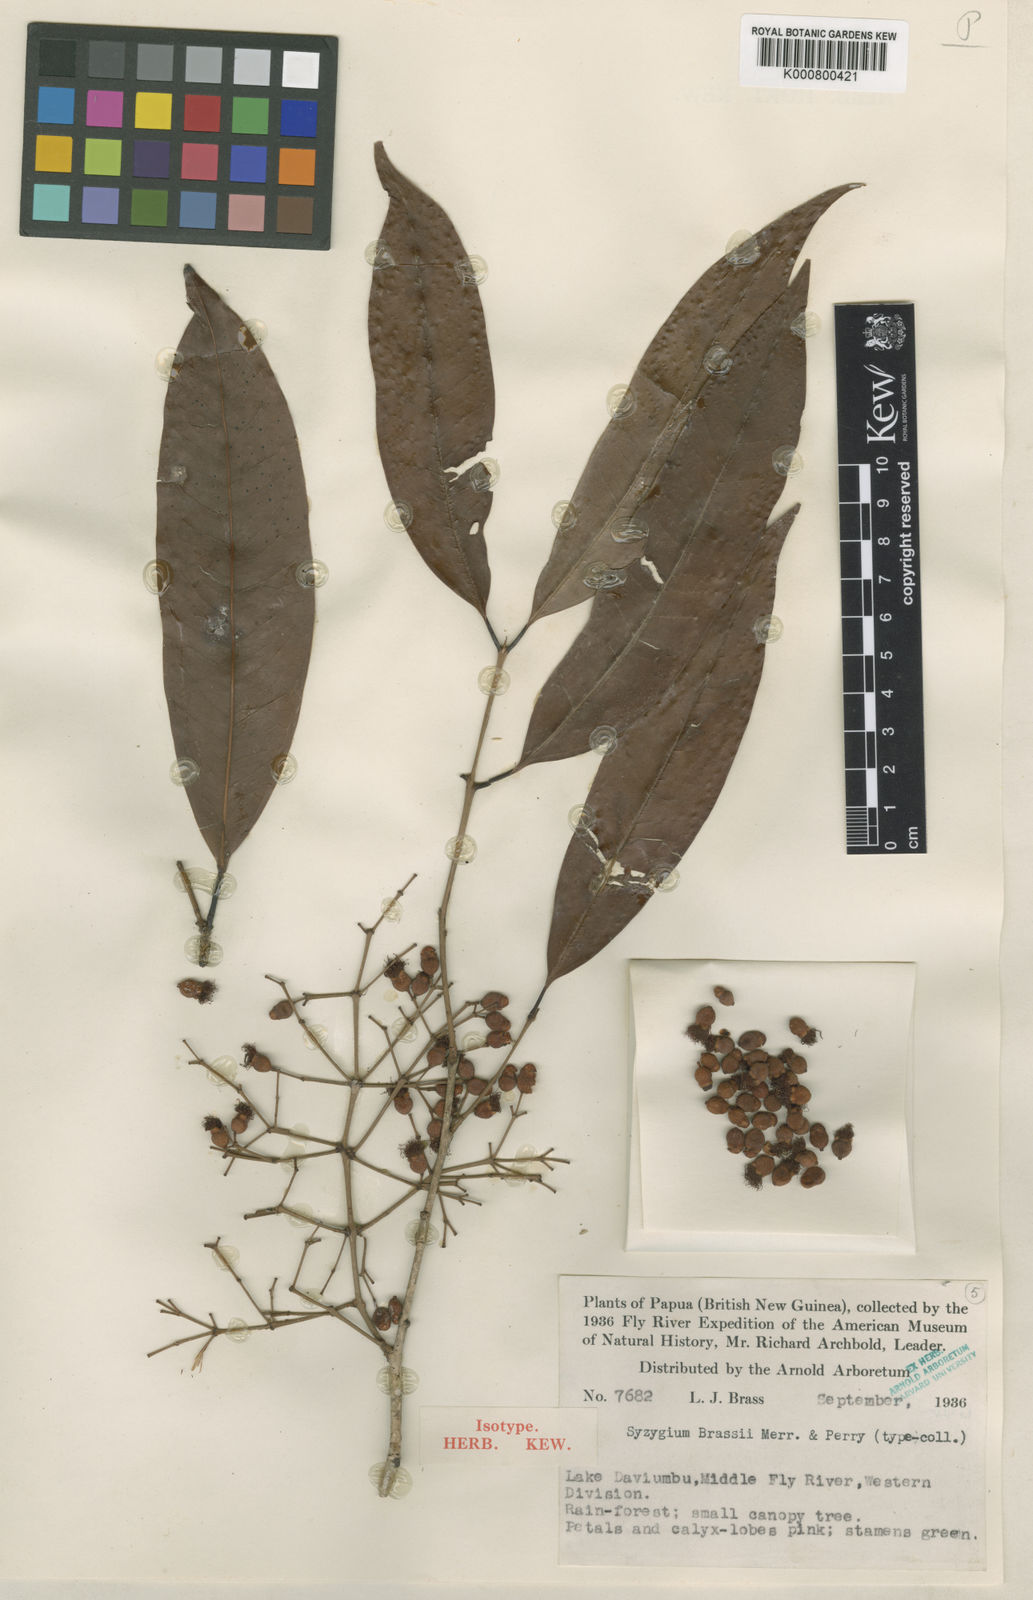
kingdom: Plantae
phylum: Tracheophyta
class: Magnoliopsida
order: Myrtales
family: Myrtaceae
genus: Syzygium
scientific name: Syzygium brassii
